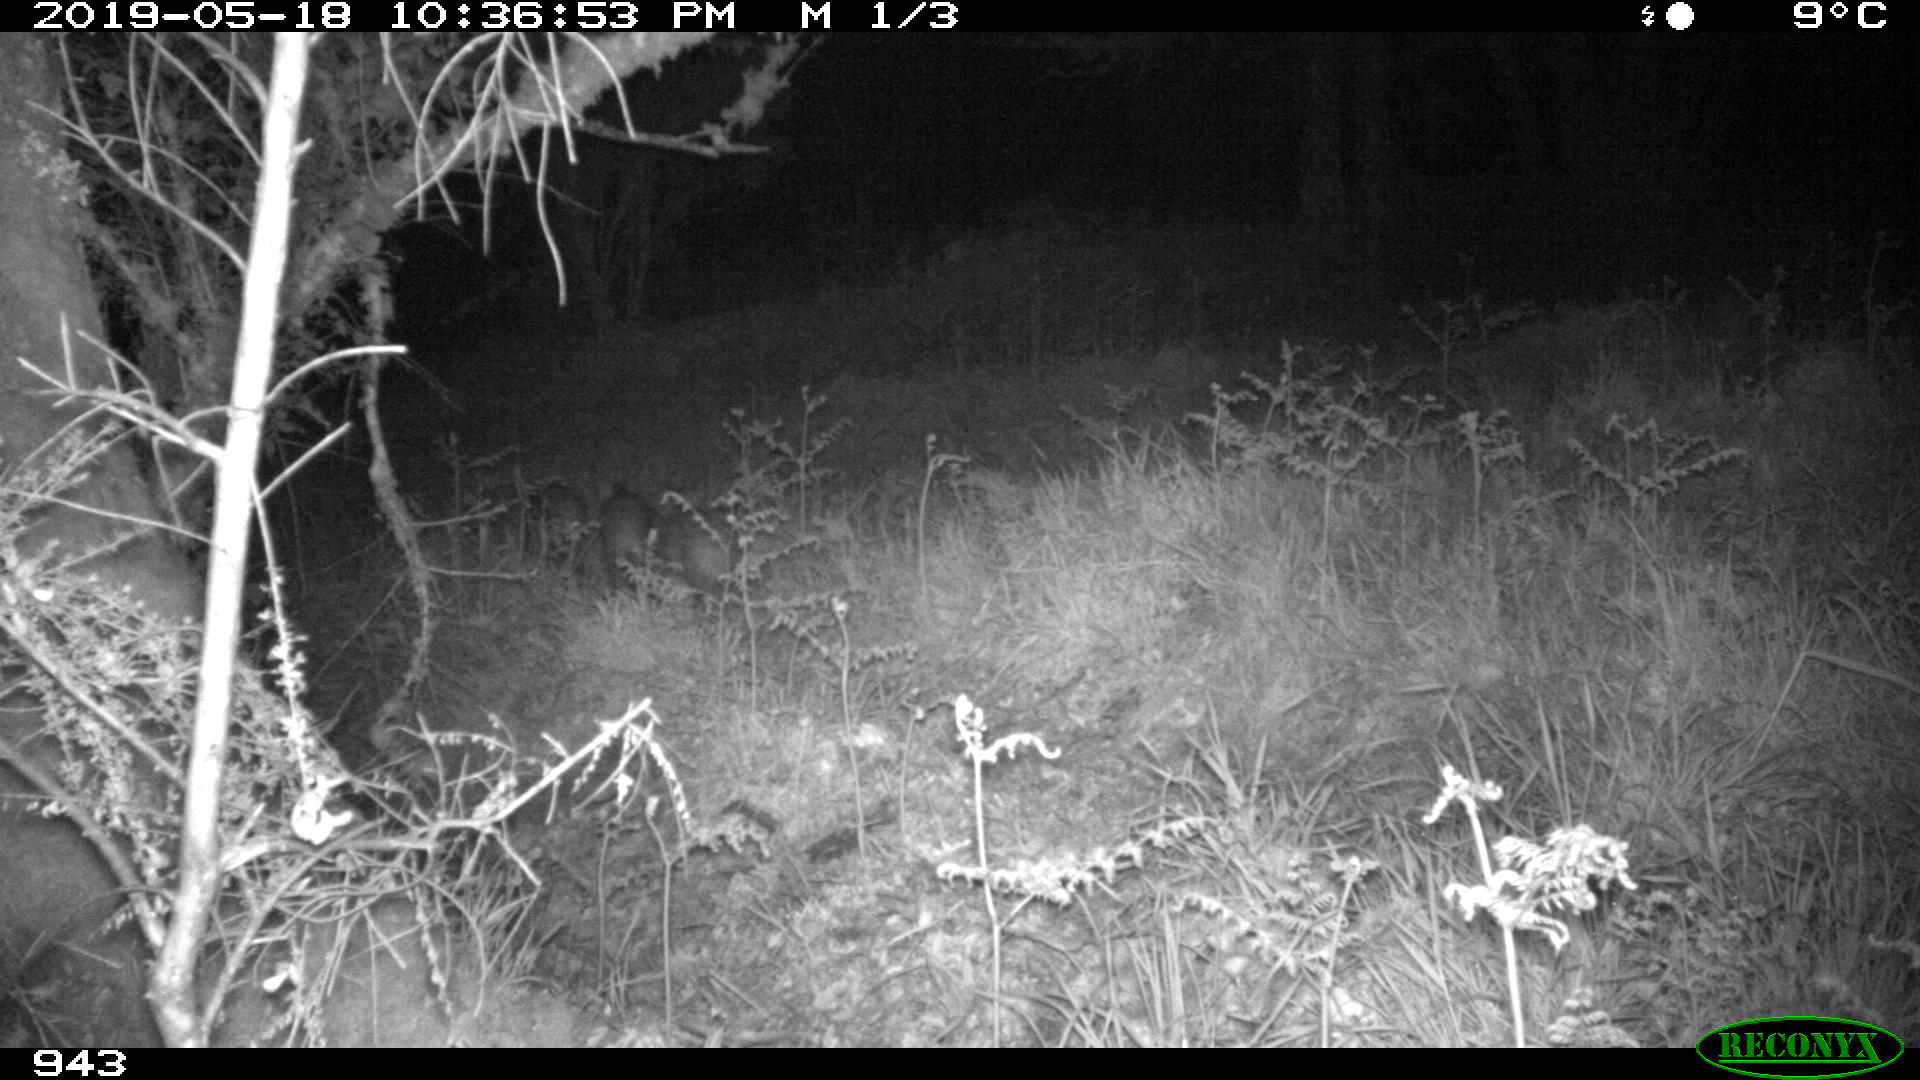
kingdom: Animalia
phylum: Chordata
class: Mammalia
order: Artiodactyla
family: Suidae
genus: Sus
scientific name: Sus scrofa
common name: Wild boar
